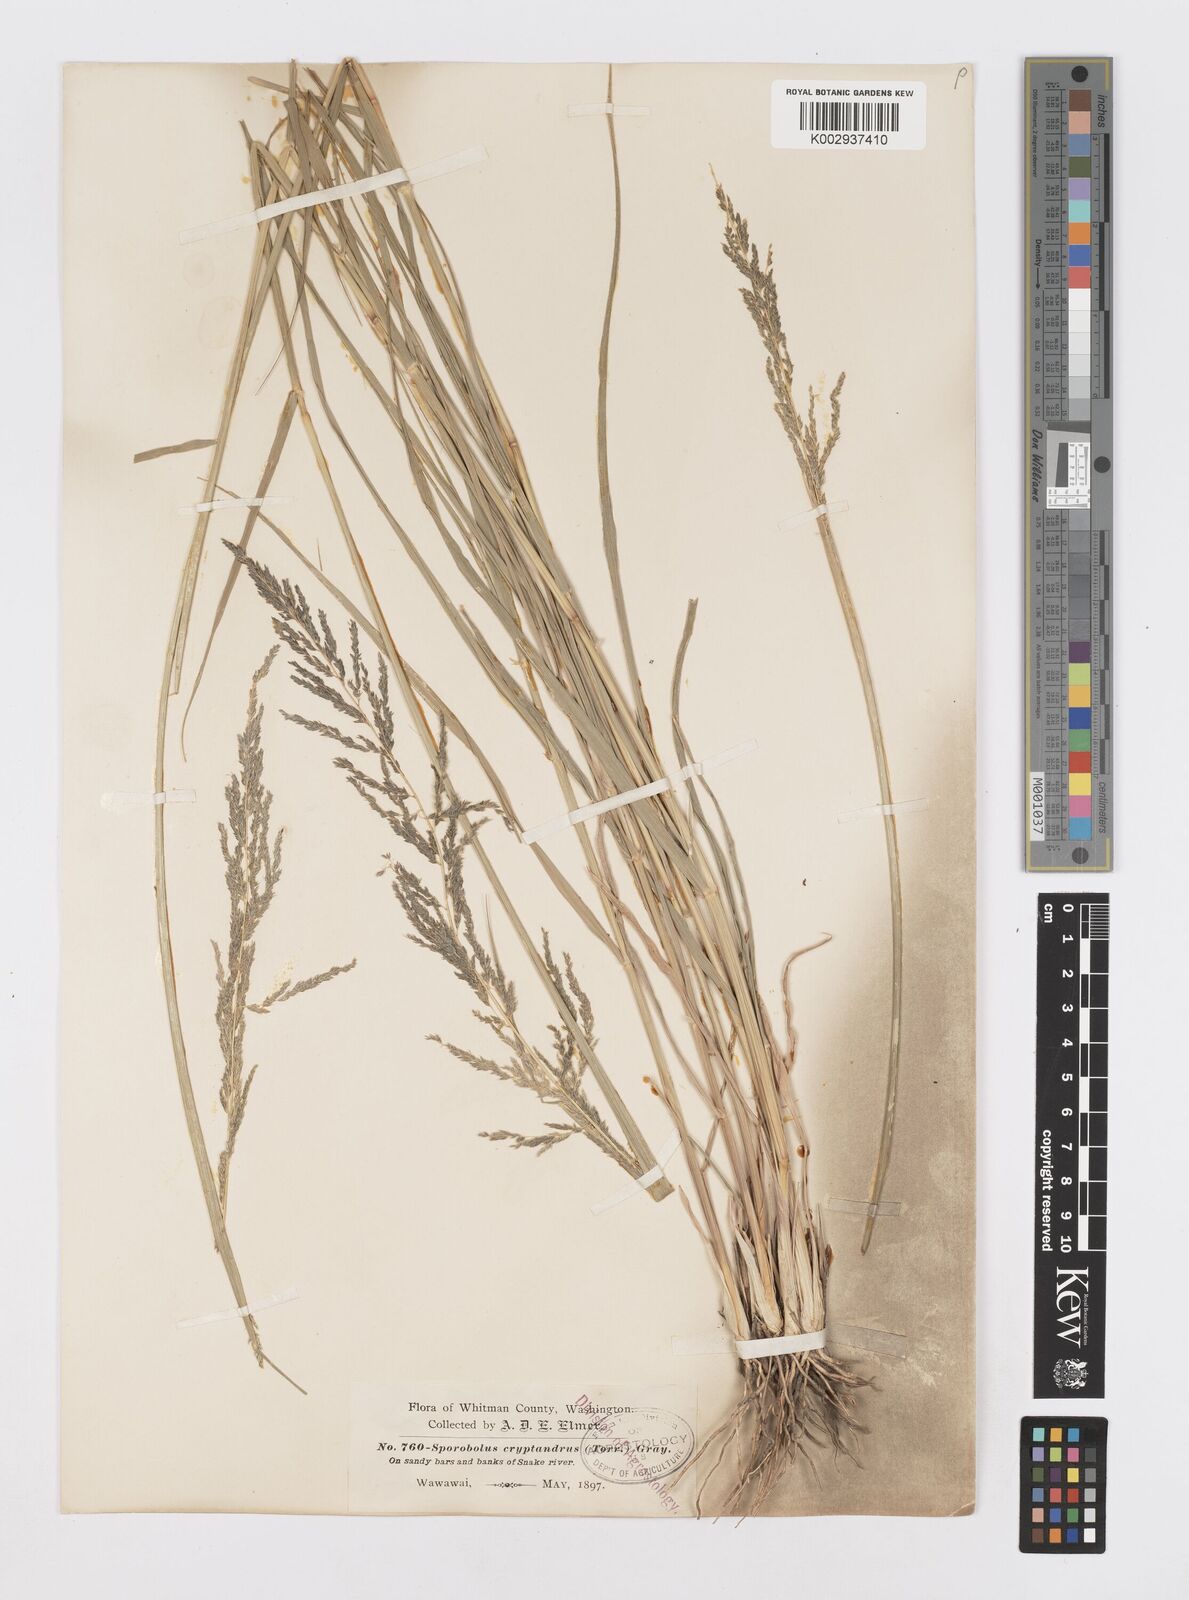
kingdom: Plantae
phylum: Tracheophyta
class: Liliopsida
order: Poales
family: Poaceae
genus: Sporobolus
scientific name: Sporobolus cryptandrus
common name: Sand dropseed
